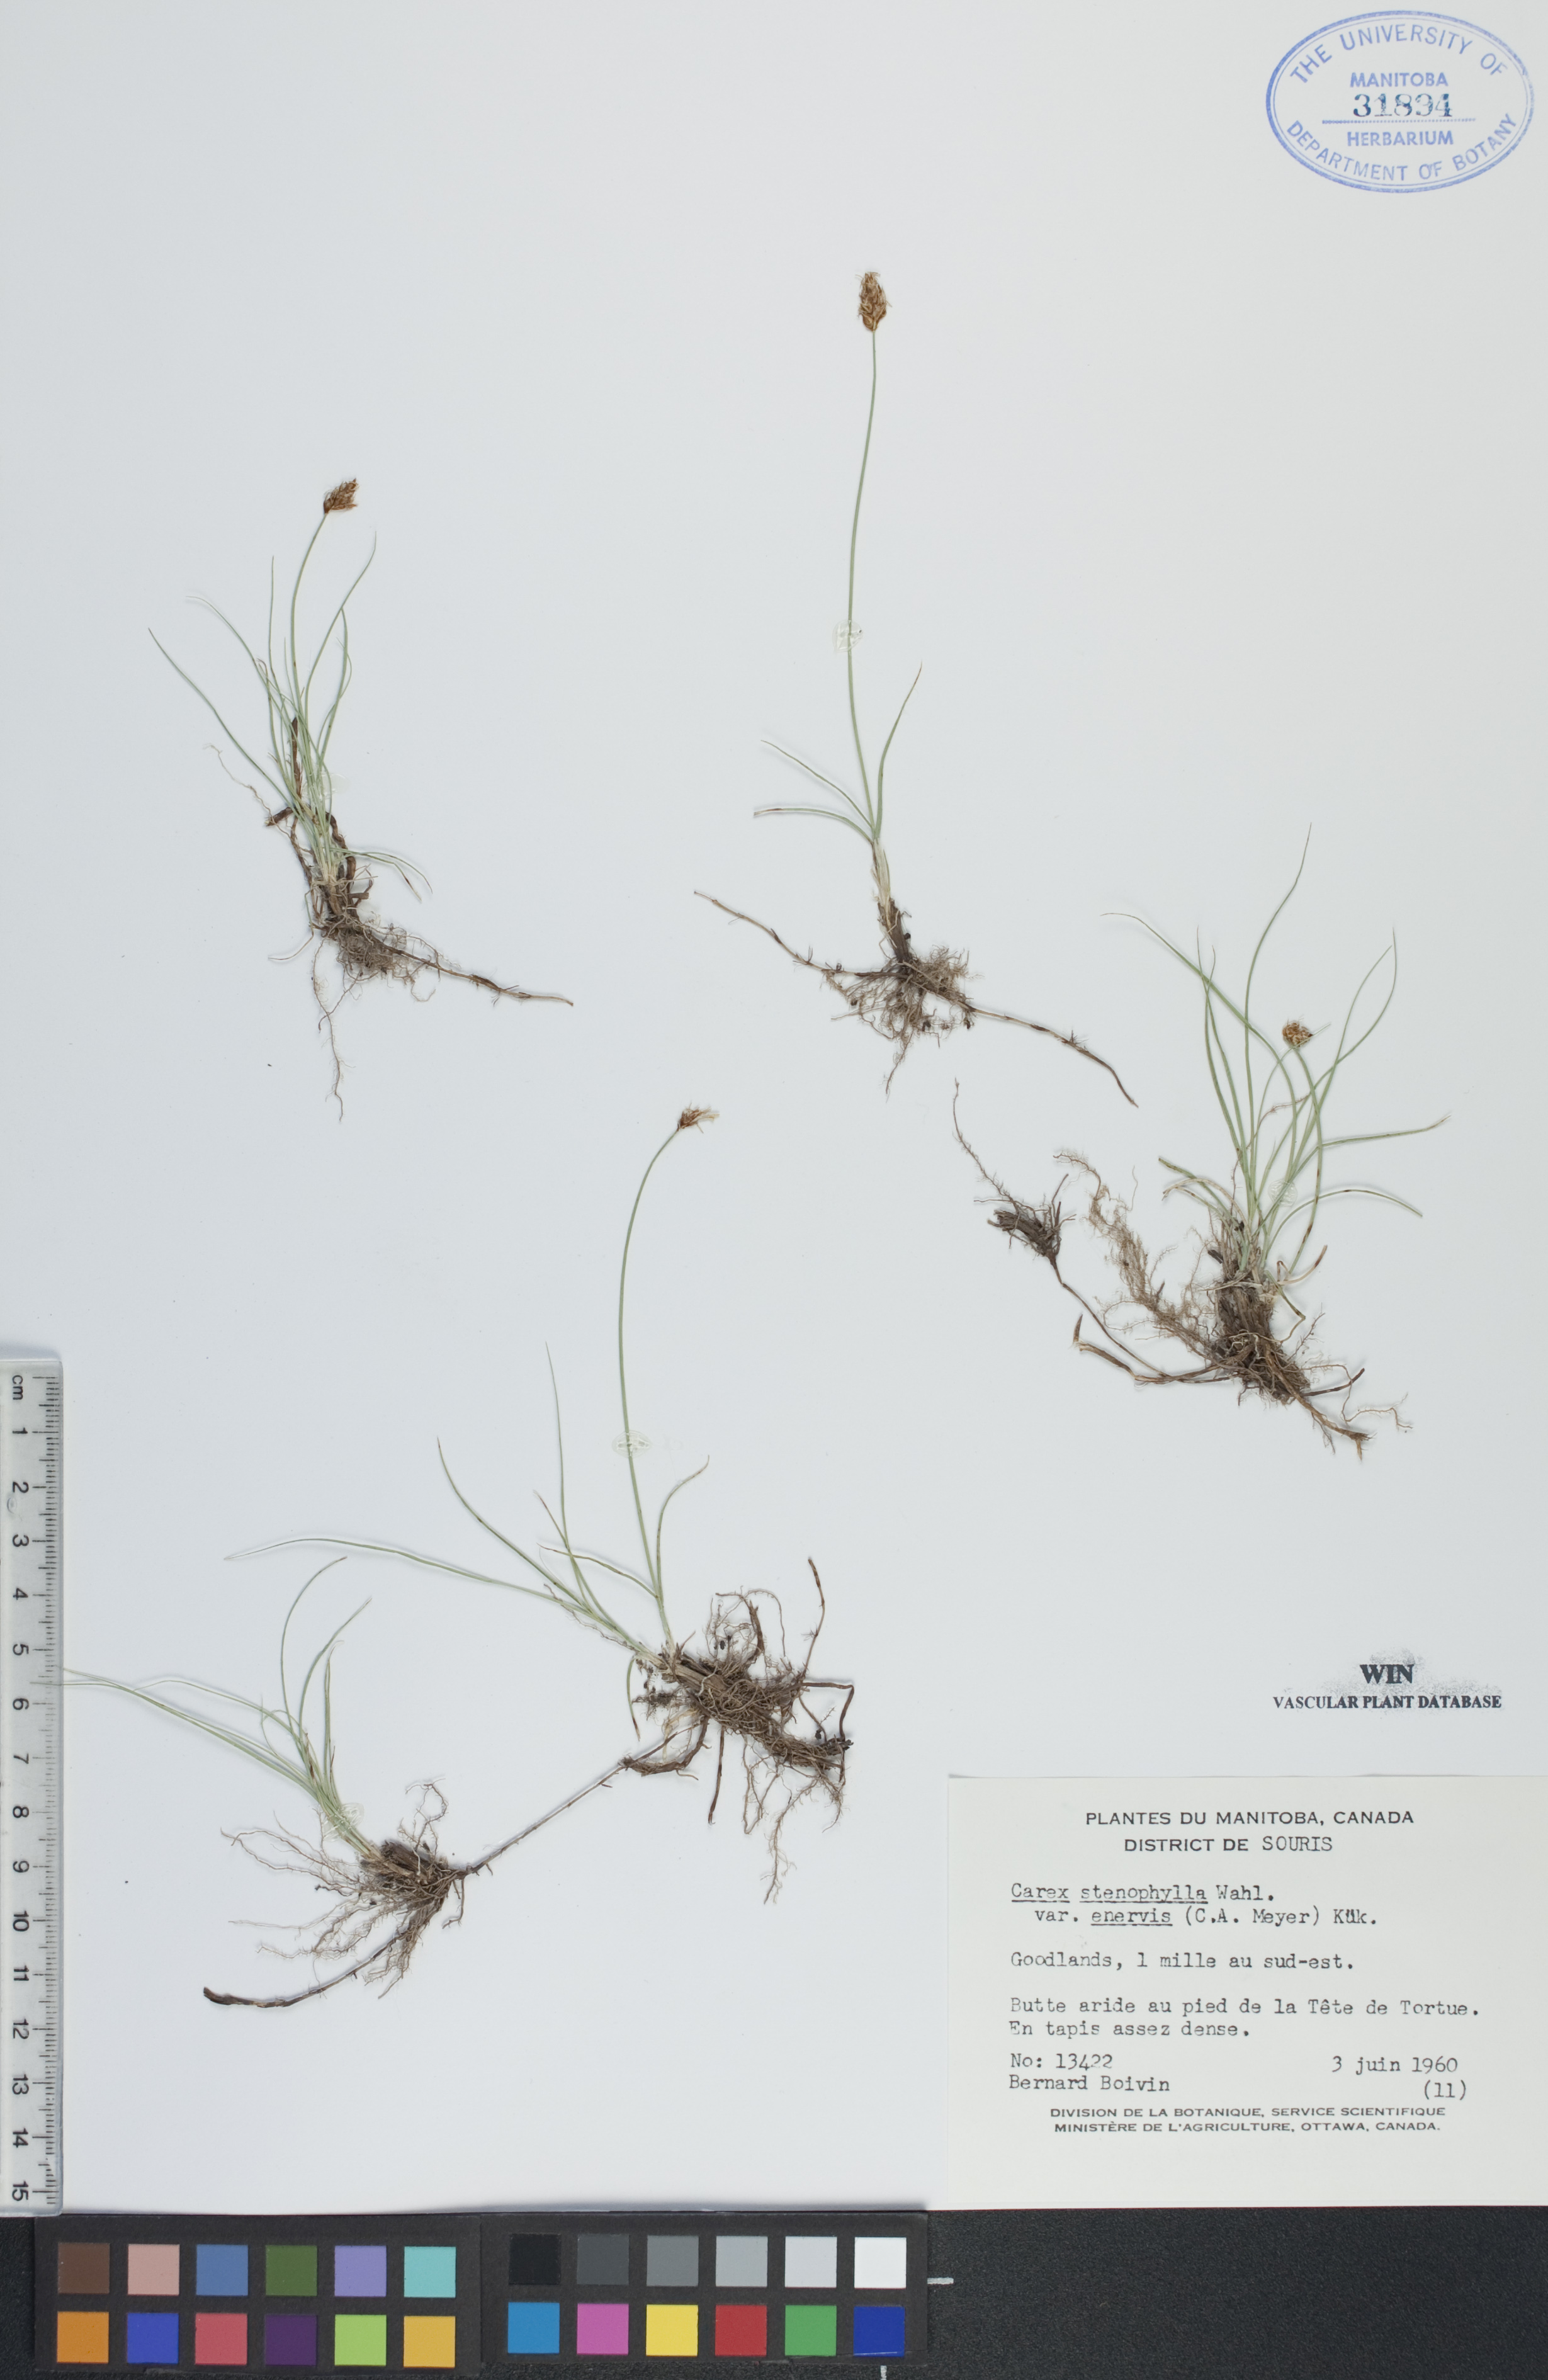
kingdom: Plantae
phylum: Tracheophyta
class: Liliopsida
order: Poales
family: Cyperaceae
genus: Carex
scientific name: Carex enervis
